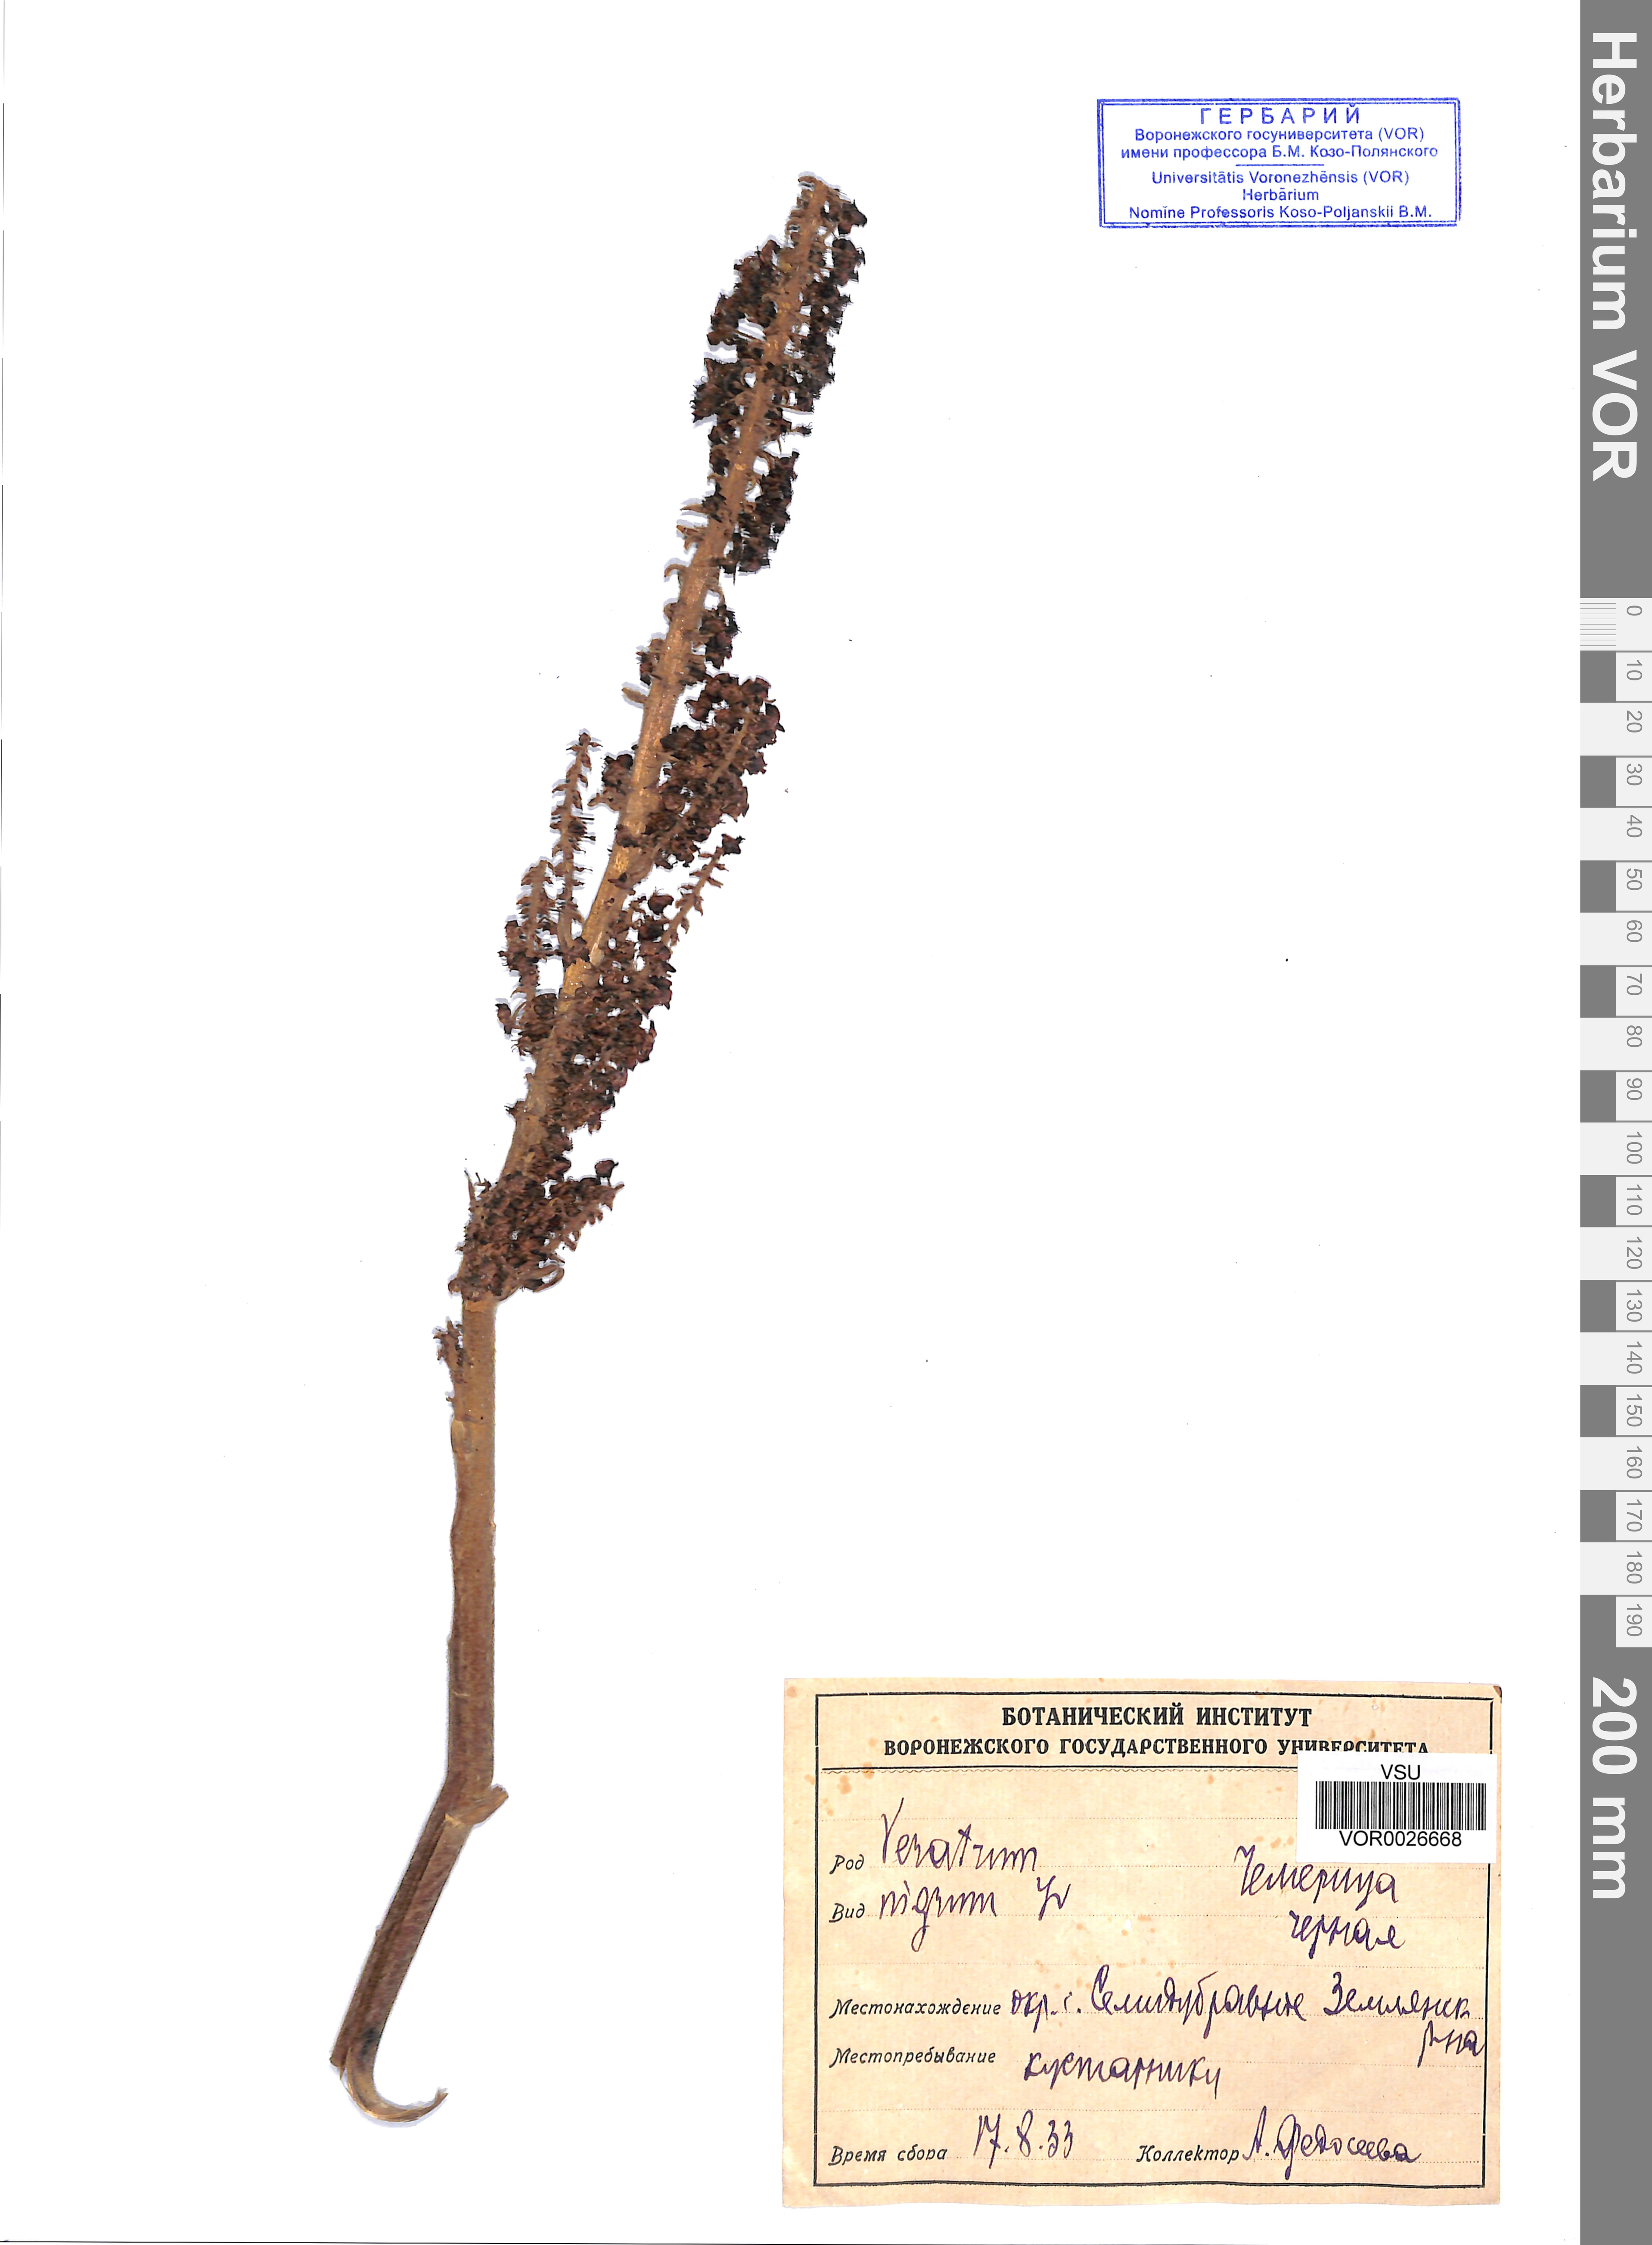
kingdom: Plantae
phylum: Tracheophyta
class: Liliopsida
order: Liliales
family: Melanthiaceae
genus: Veratrum
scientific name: Veratrum nigrum
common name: Black veratrum
